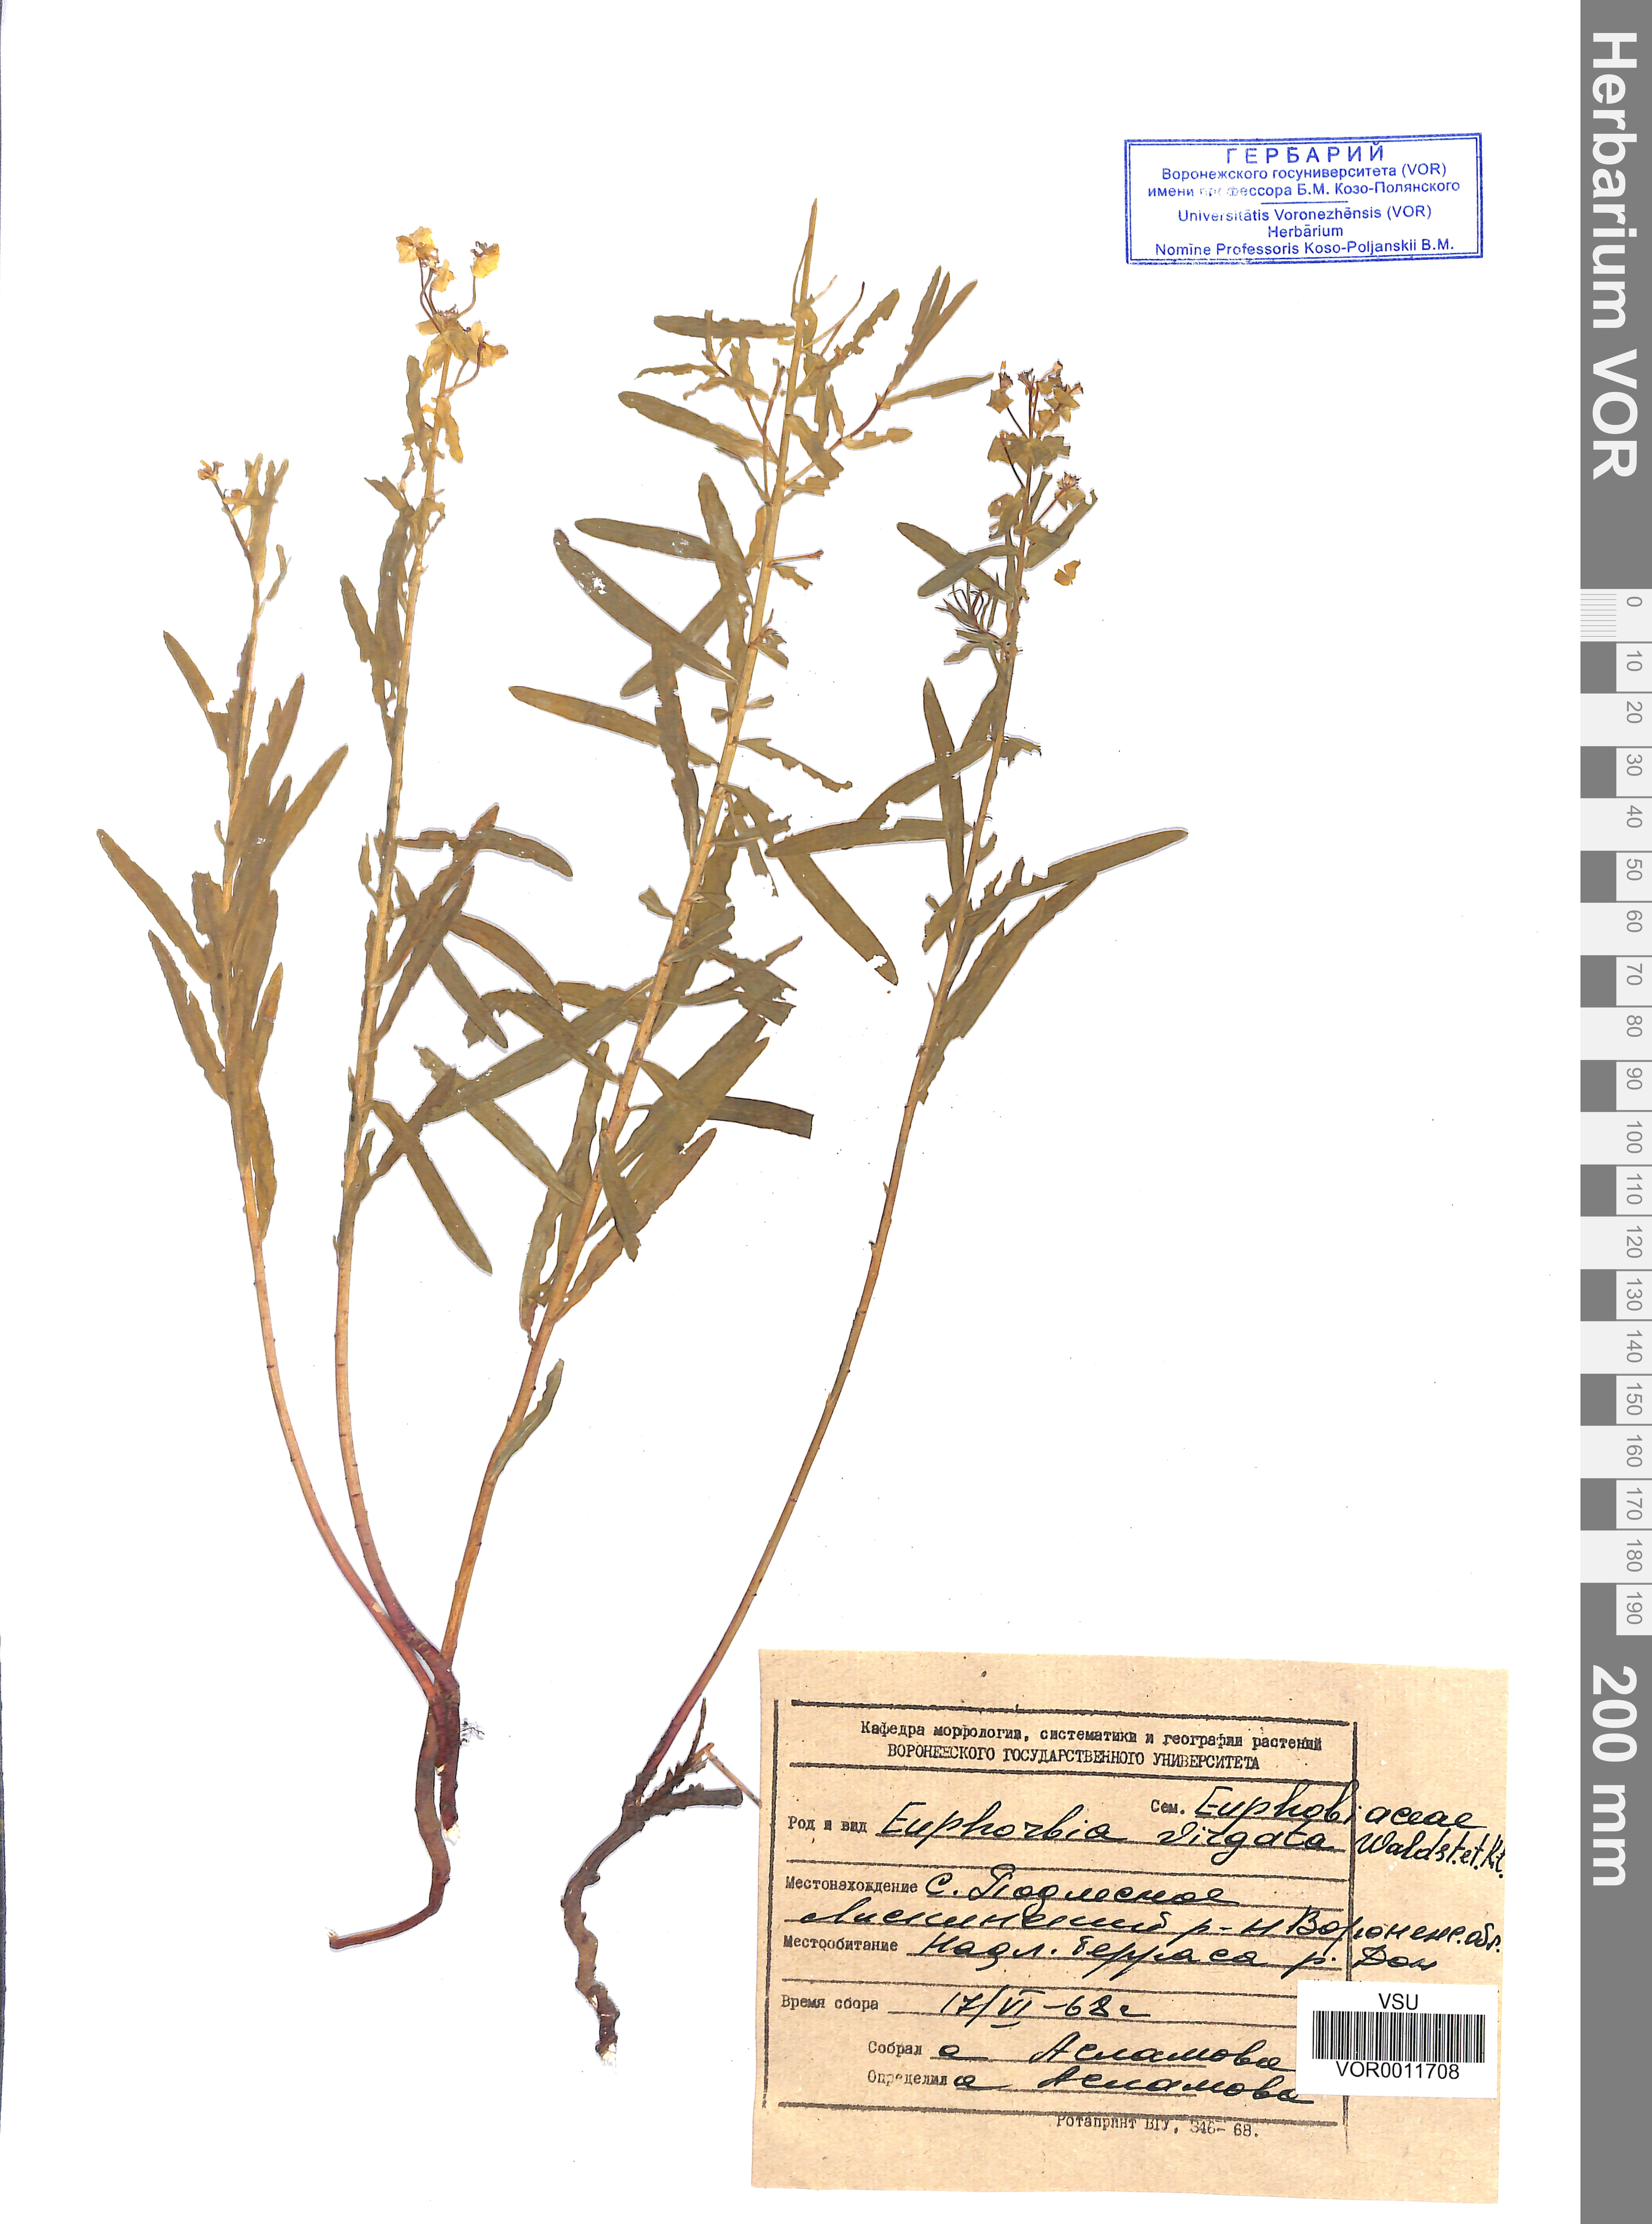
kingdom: Plantae
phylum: Tracheophyta
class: Magnoliopsida
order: Malpighiales
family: Euphorbiaceae
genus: Euphorbia
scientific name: Euphorbia virgata
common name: Leafy spurge
